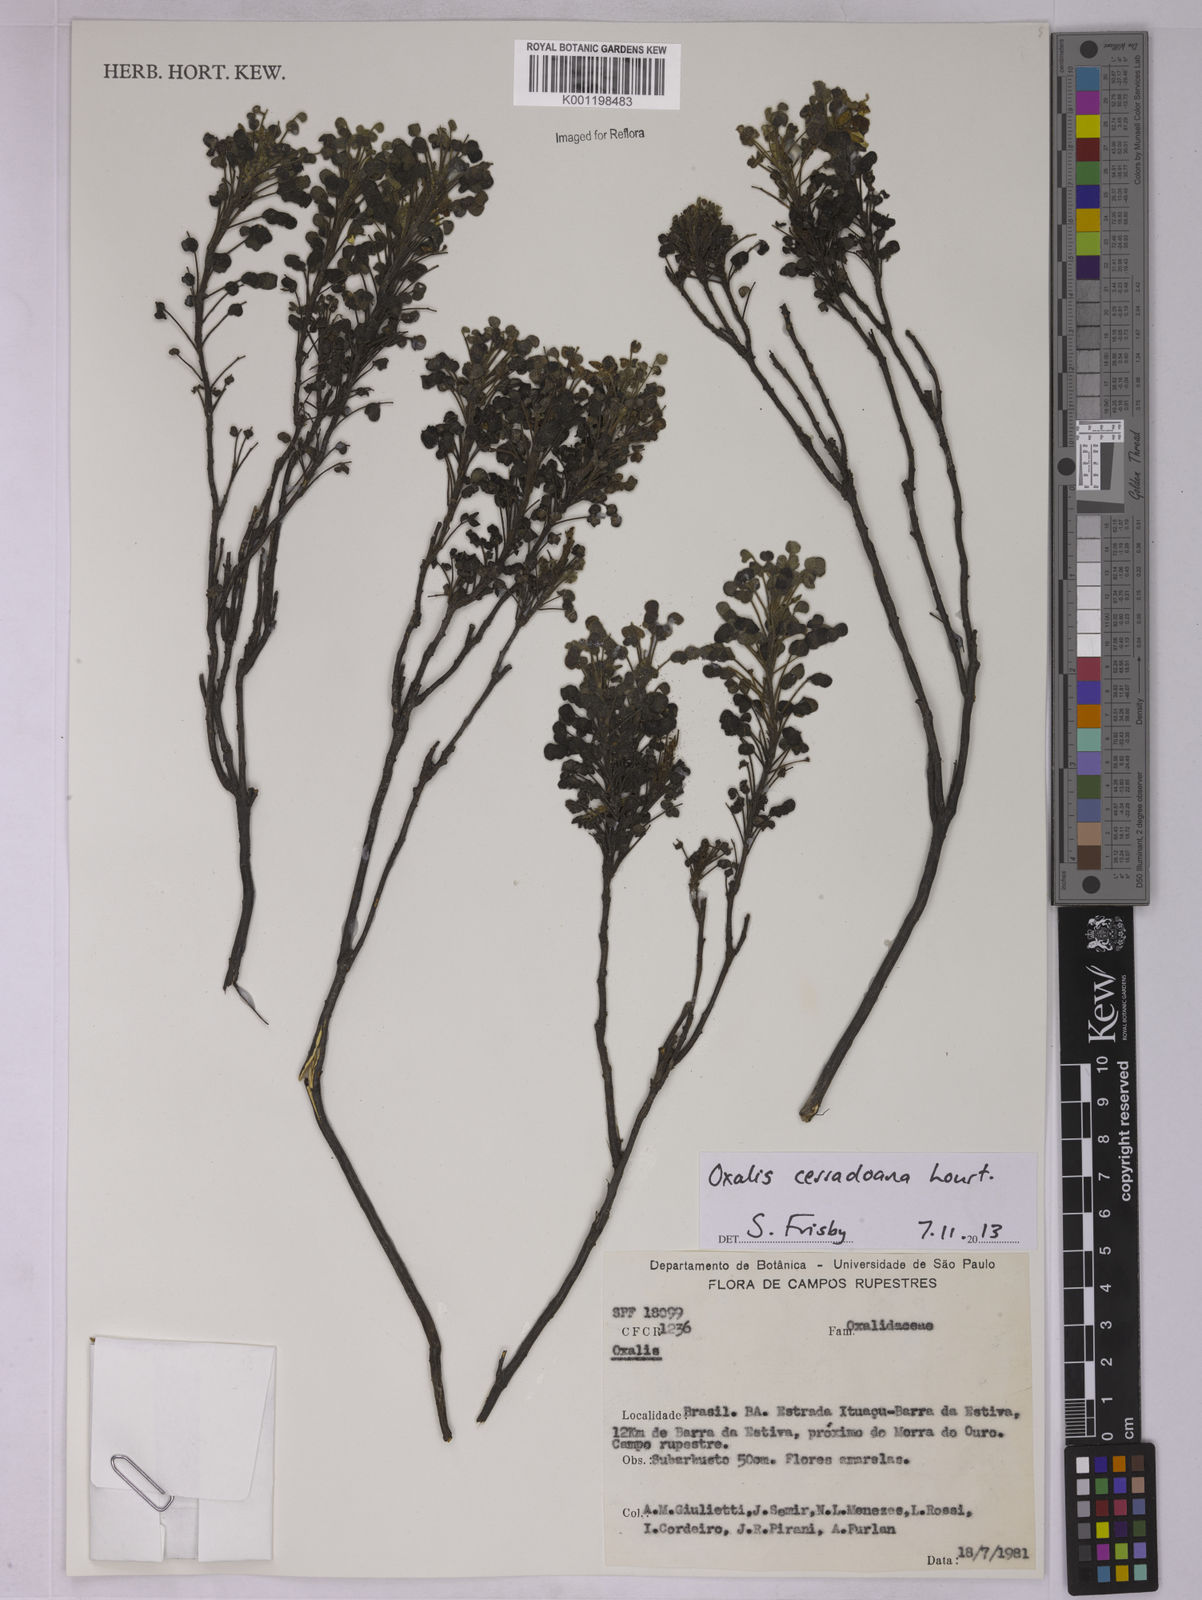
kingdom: Plantae
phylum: Tracheophyta
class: Magnoliopsida
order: Oxalidales
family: Oxalidaceae
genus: Oxalis
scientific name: Oxalis cerradoana
